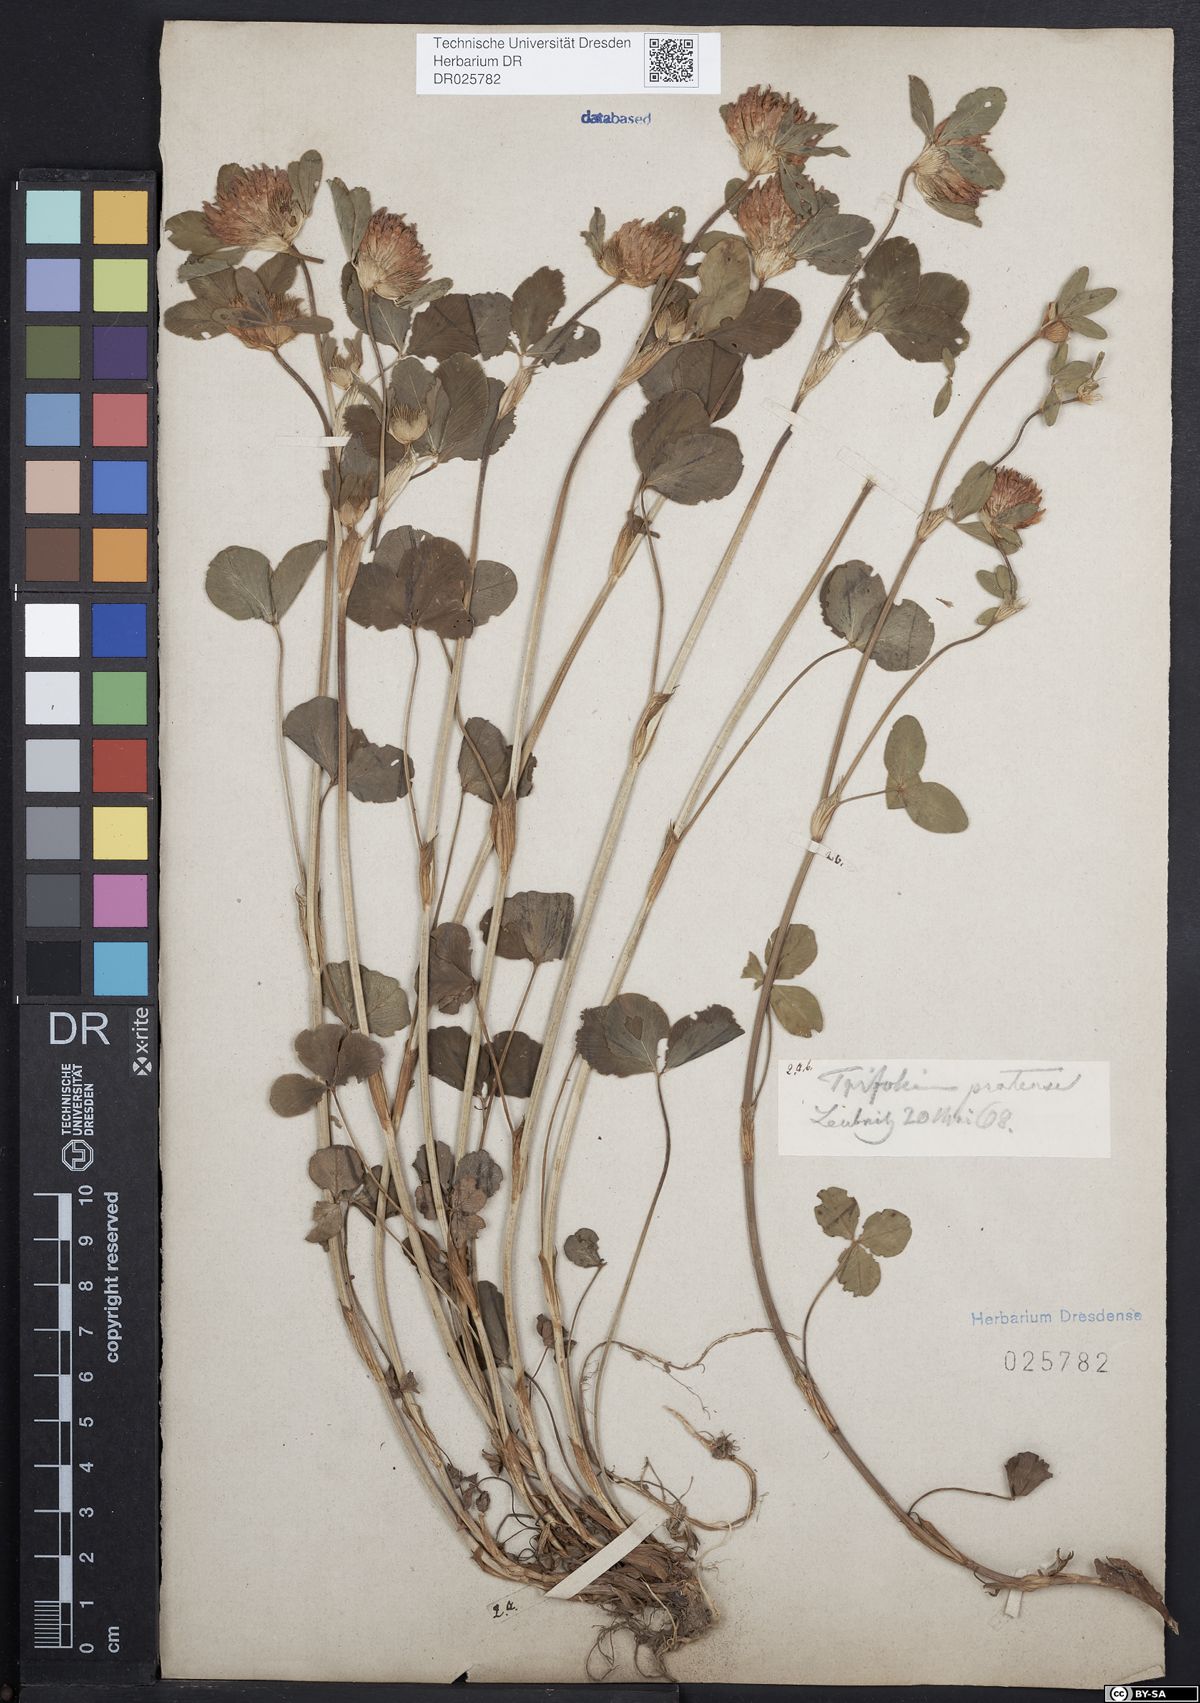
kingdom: Plantae
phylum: Tracheophyta
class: Magnoliopsida
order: Fabales
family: Fabaceae
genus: Trifolium
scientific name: Trifolium pratense
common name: Red clover
